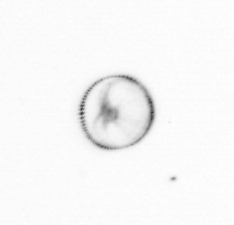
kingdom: Chromista
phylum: Myzozoa
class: Dinophyceae
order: Noctilucales
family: Noctilucaceae
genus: Noctiluca
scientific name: Noctiluca scintillans
